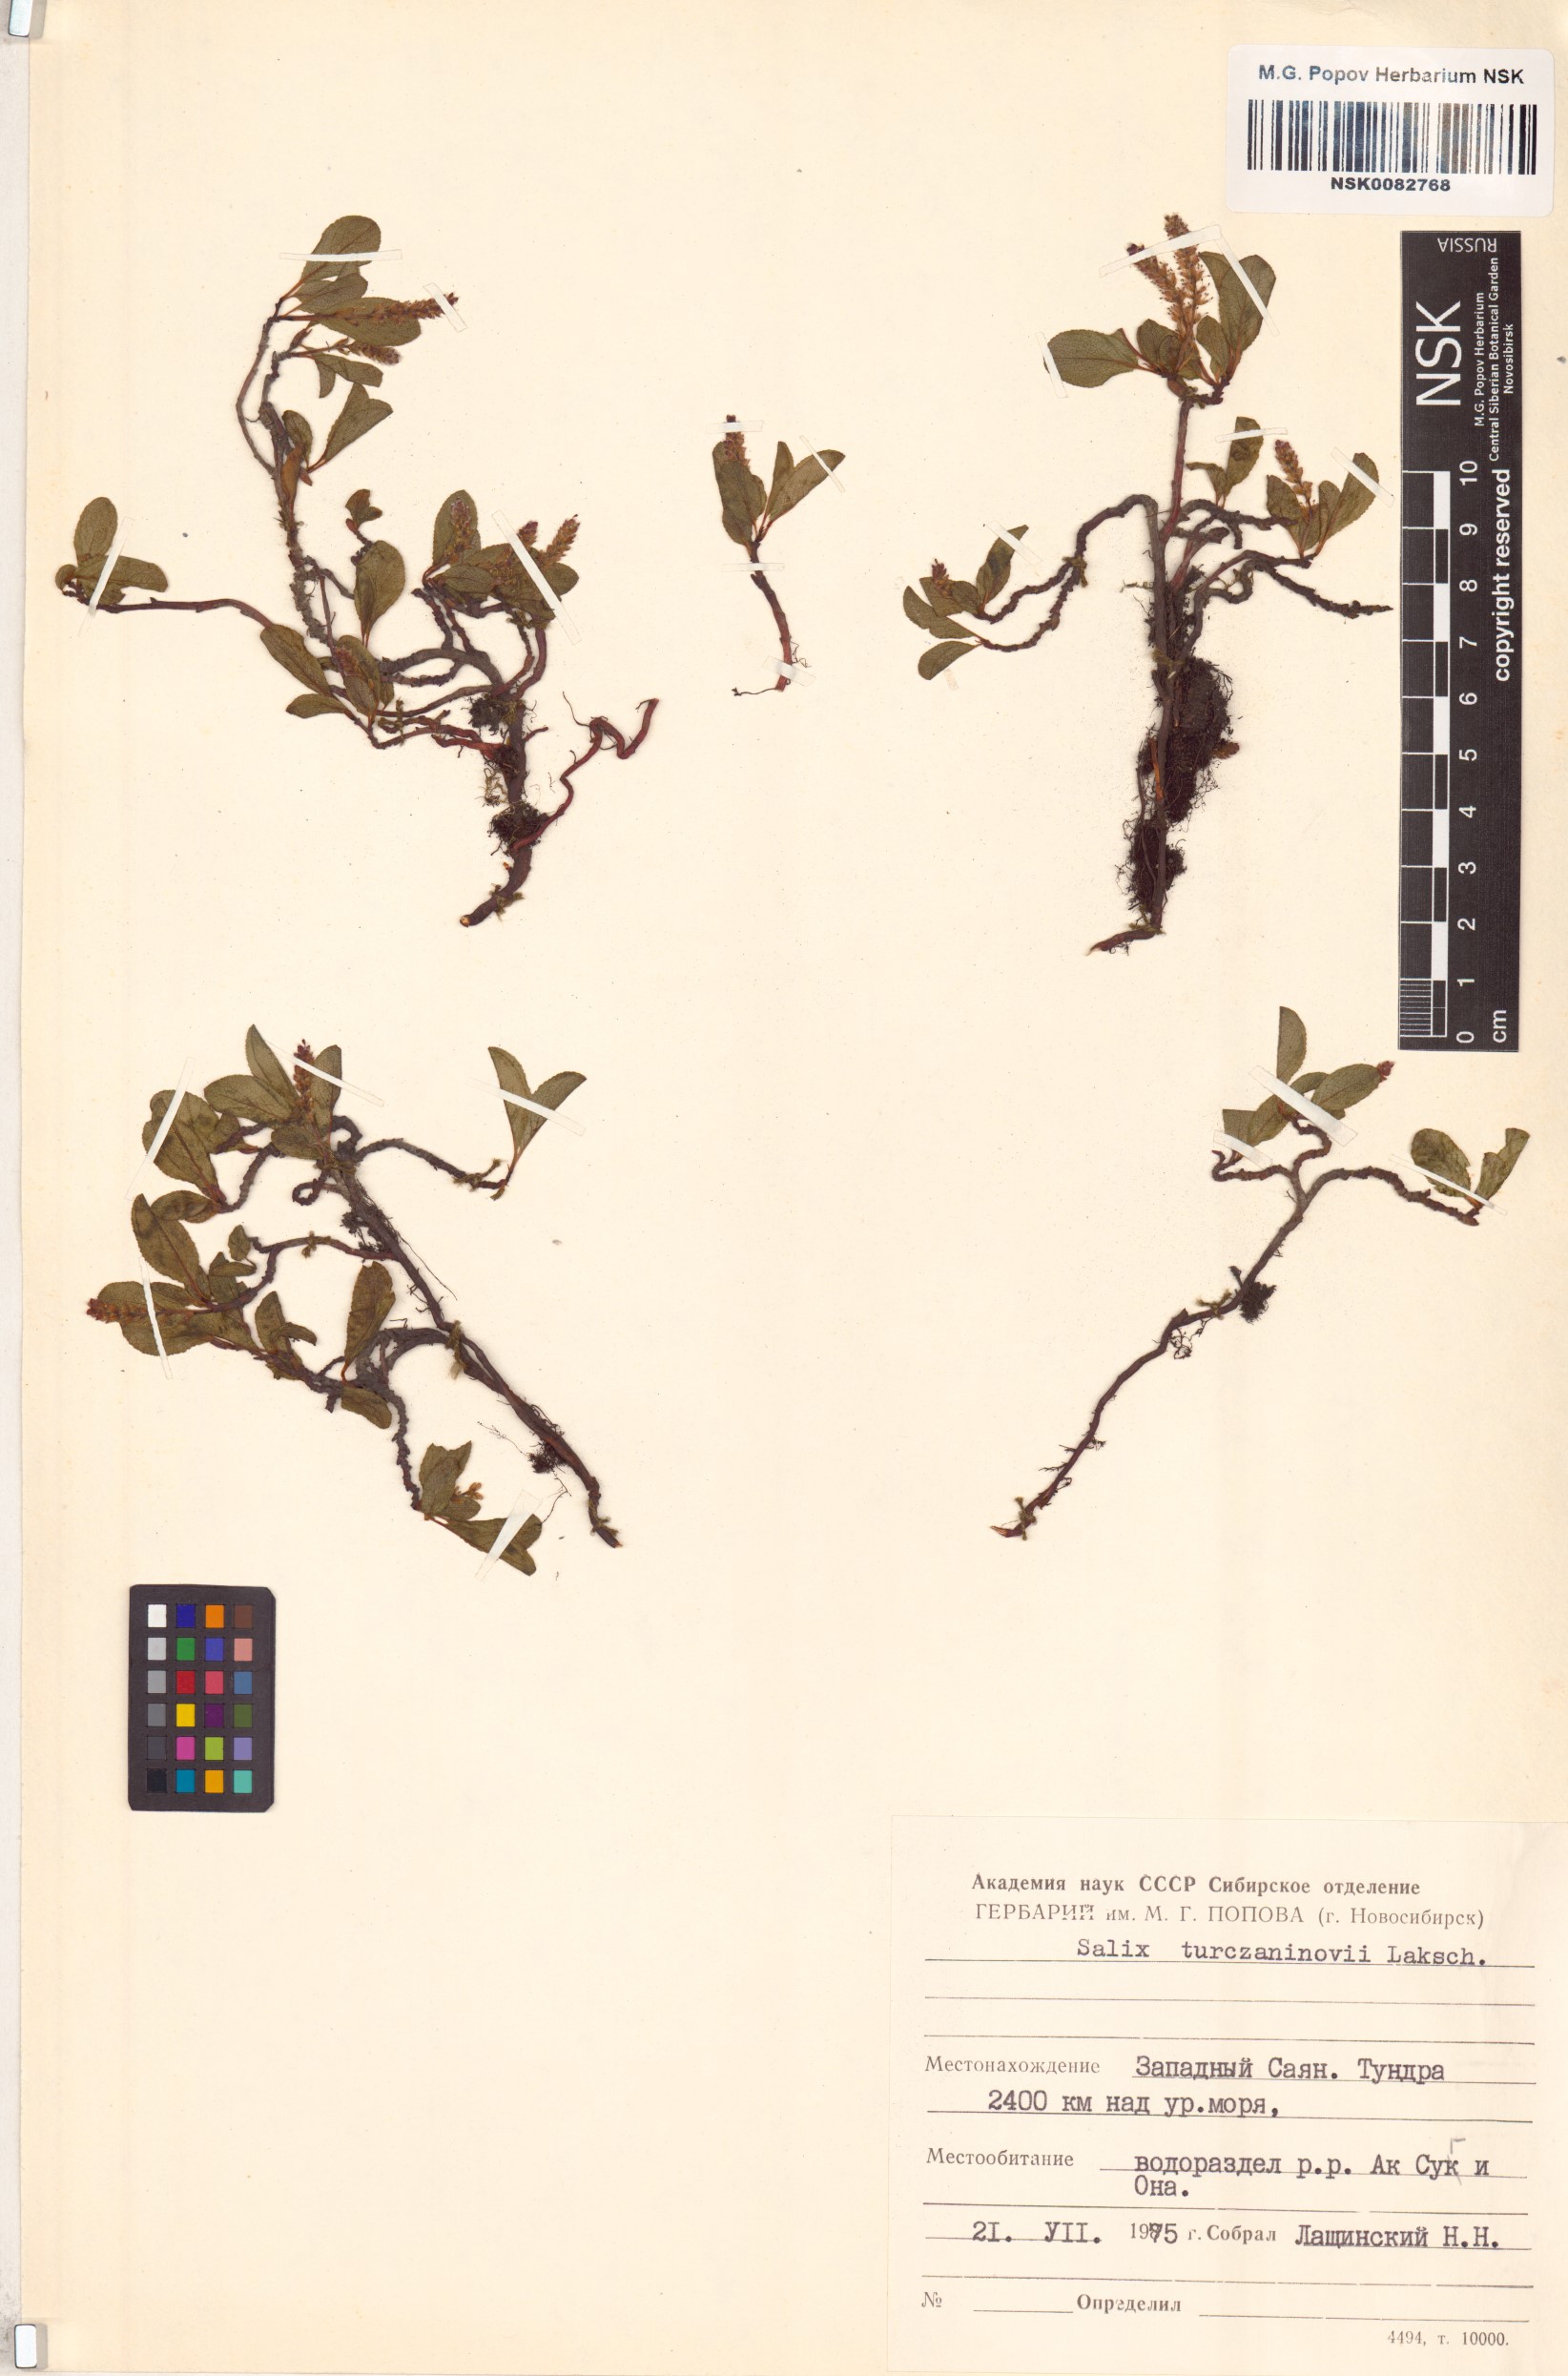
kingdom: Plantae
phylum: Tracheophyta
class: Magnoliopsida
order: Malpighiales
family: Salicaceae
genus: Salix
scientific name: Salix turczaninowii
